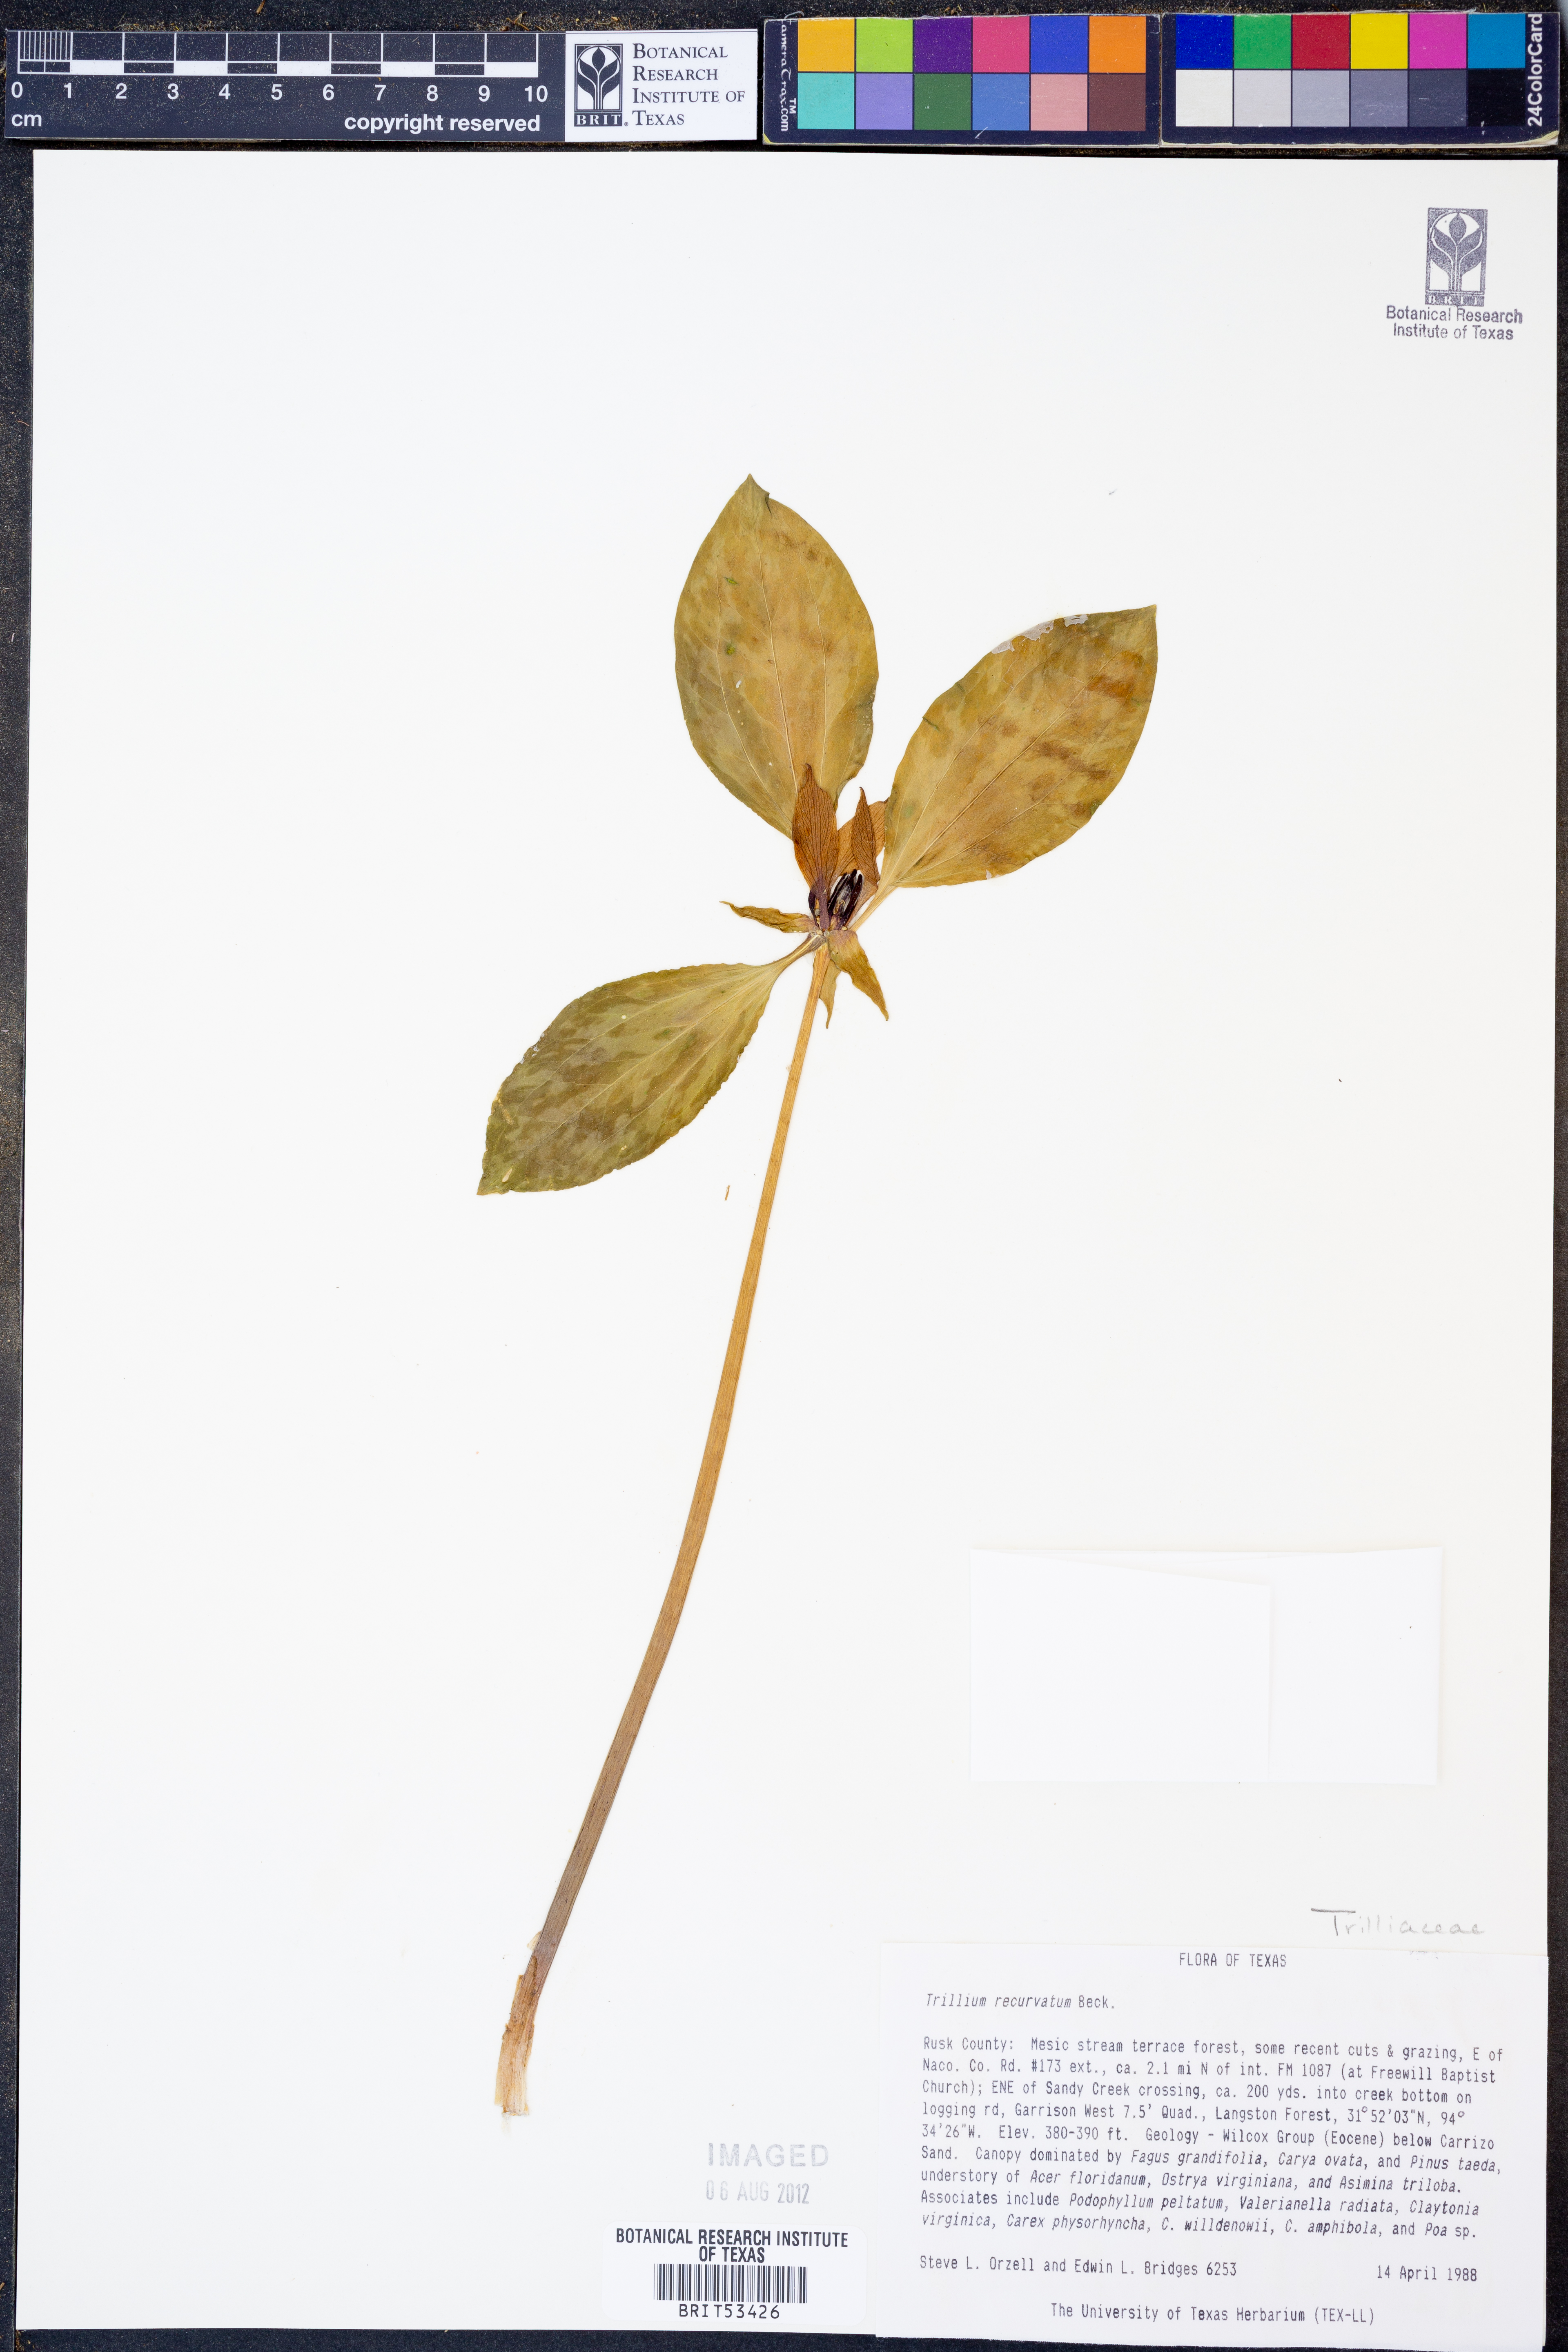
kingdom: Plantae
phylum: Tracheophyta
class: Liliopsida
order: Liliales
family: Melanthiaceae
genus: Trillium
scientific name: Trillium recurvatum
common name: Bloody butcher
